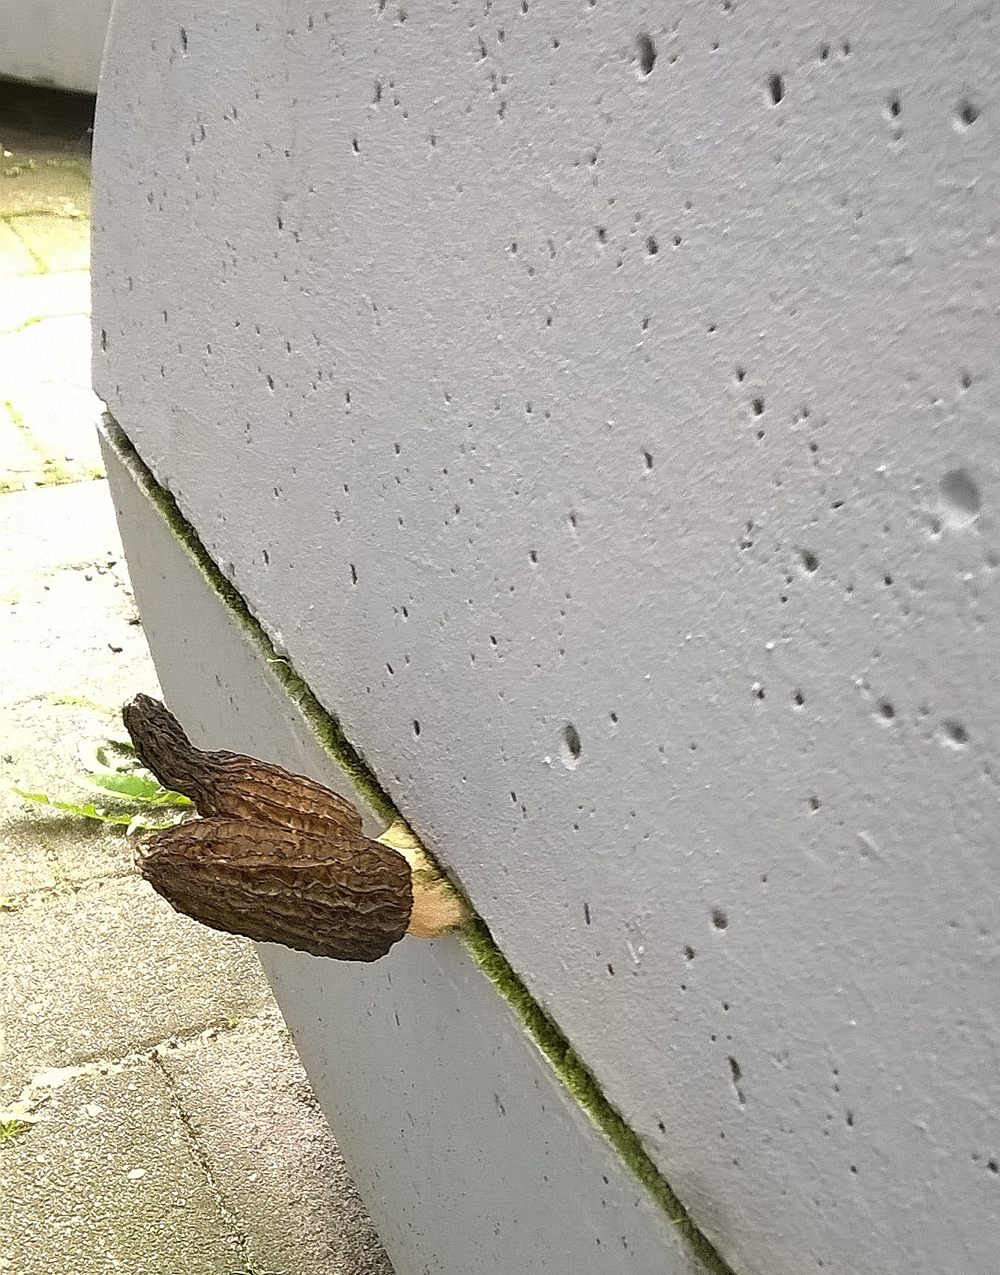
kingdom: Fungi
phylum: Ascomycota
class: Pezizomycetes
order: Pezizales
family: Morchellaceae
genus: Morchella
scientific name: Morchella elata
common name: Black morel
